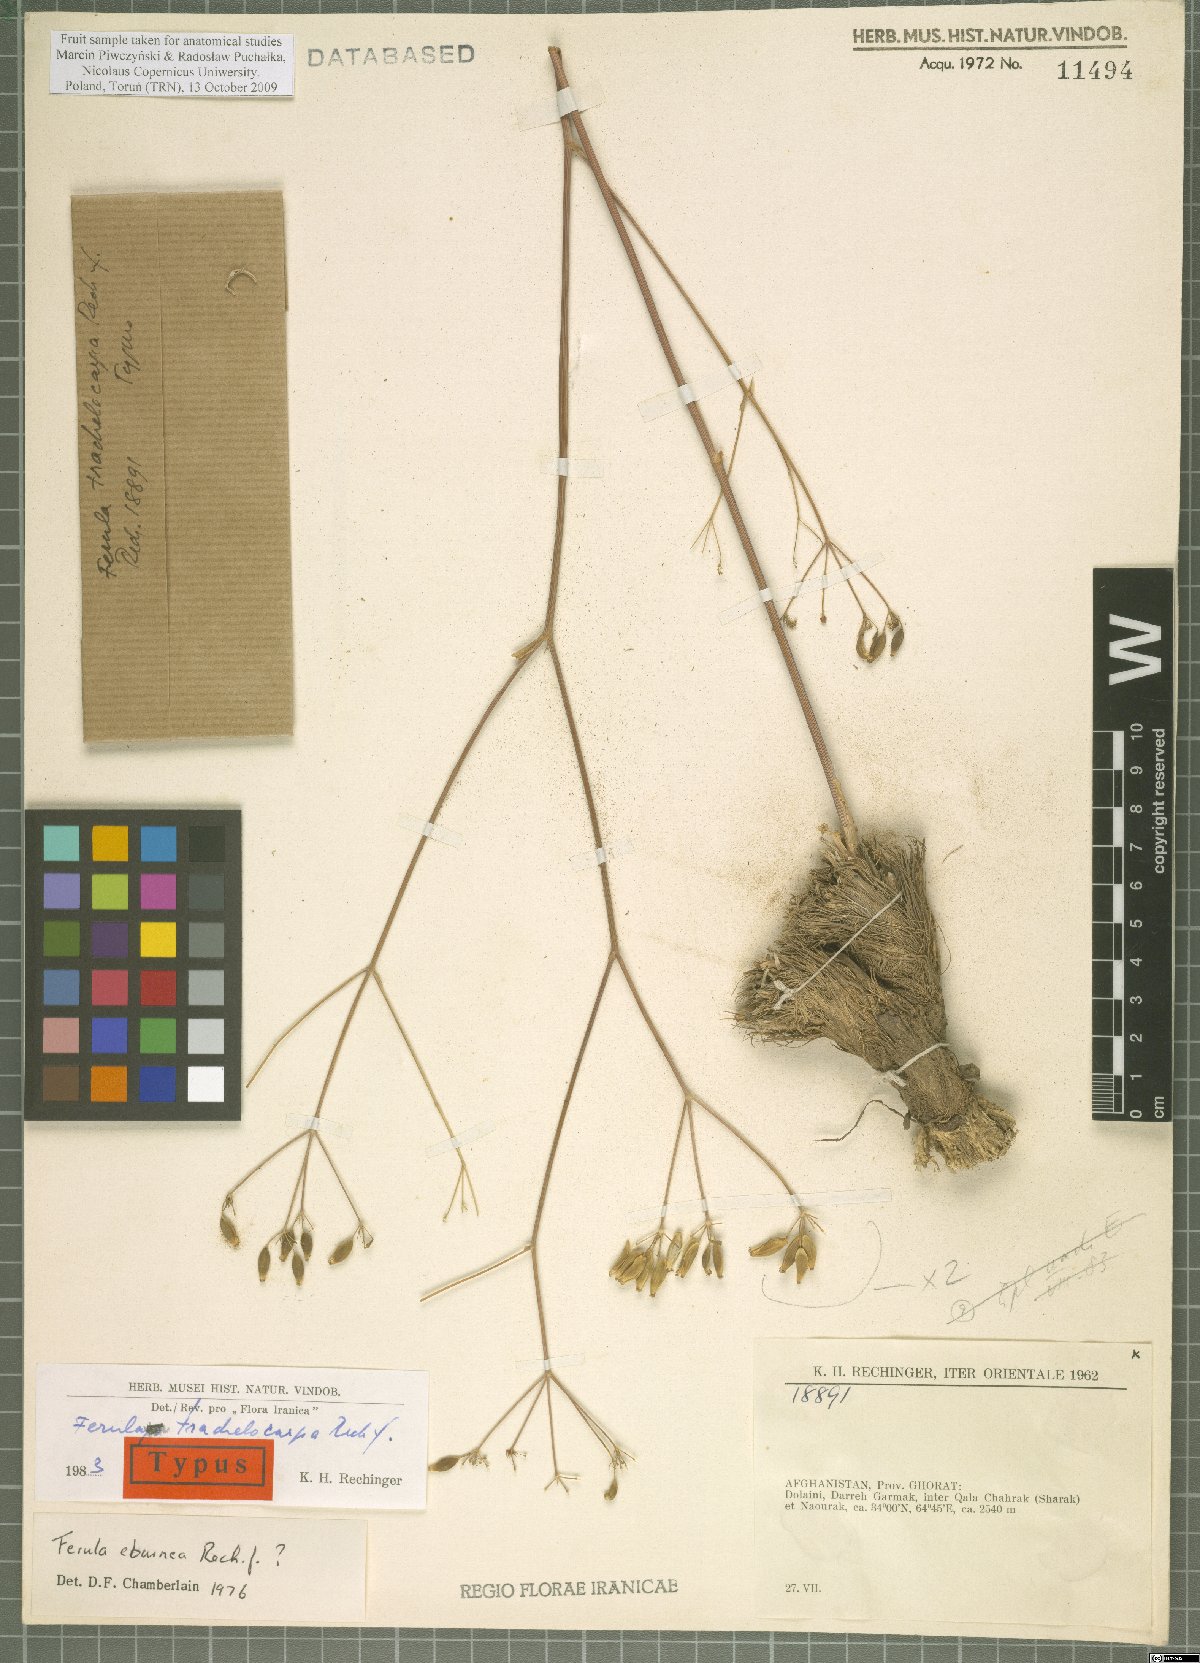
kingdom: Plantae
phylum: Tracheophyta
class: Magnoliopsida
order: Apiales
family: Apiaceae
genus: Ferula
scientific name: Ferula trachelocarpa
